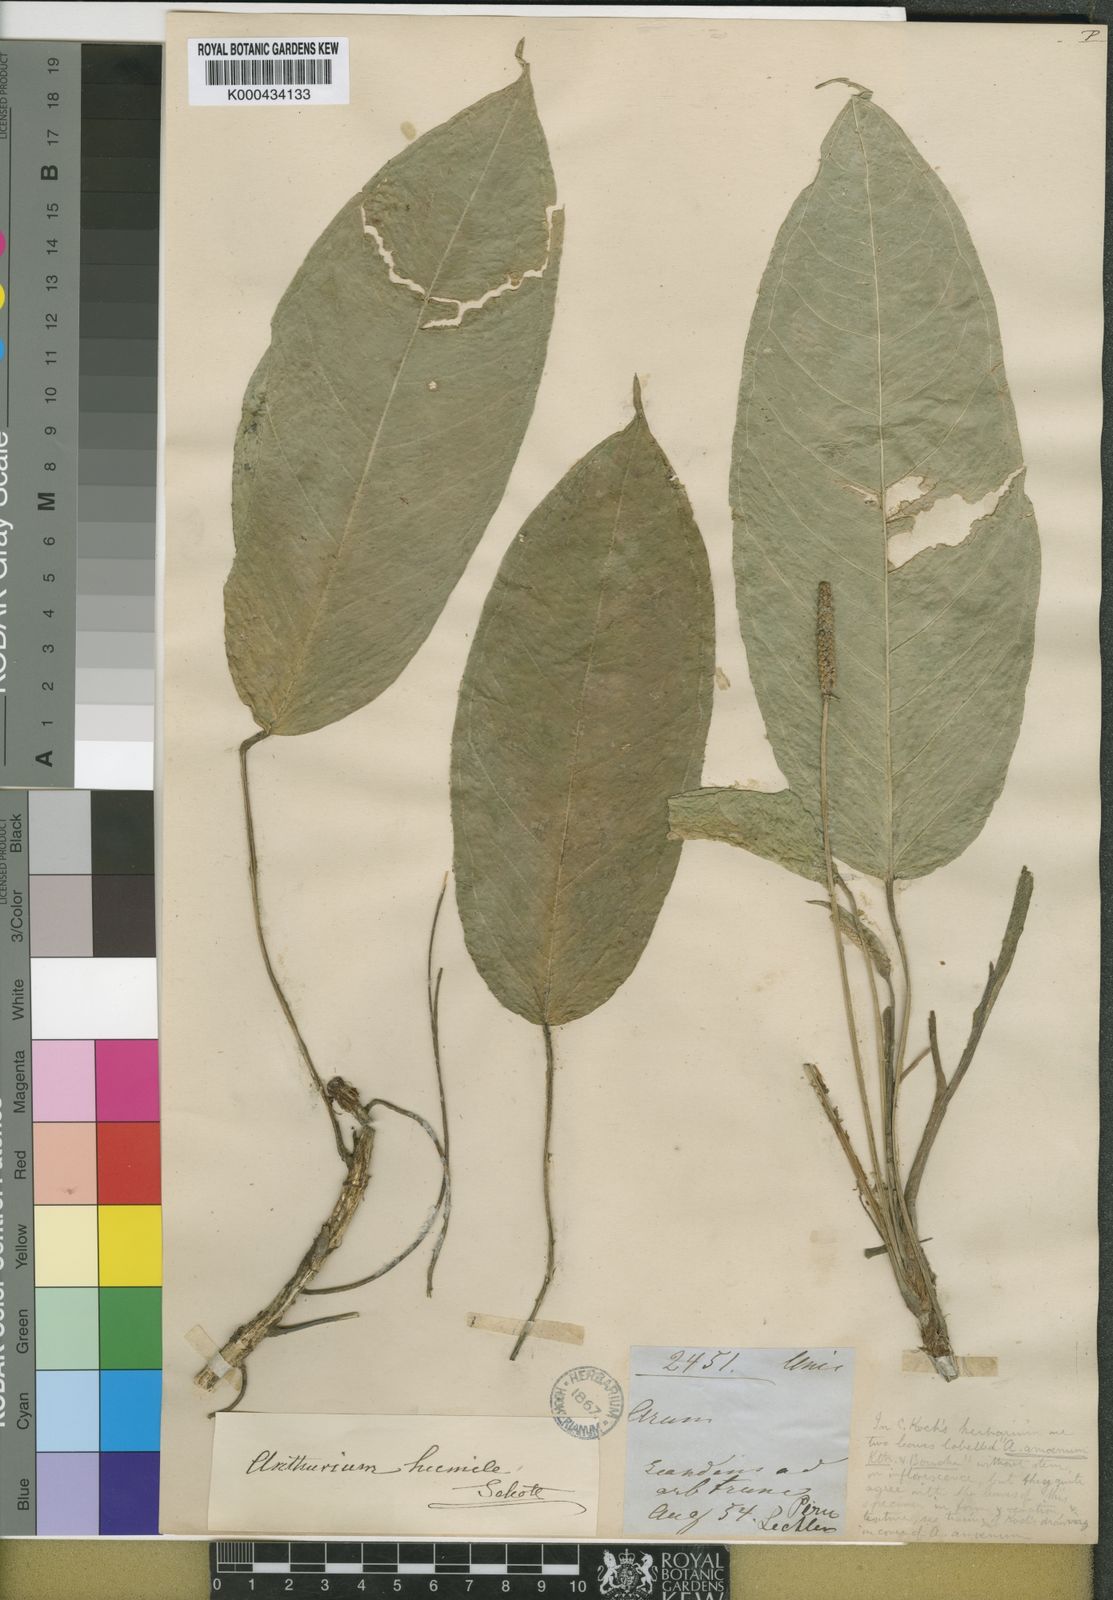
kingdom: Plantae
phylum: Tracheophyta
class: Liliopsida
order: Alismatales
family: Araceae
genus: Anthurium
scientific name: Anthurium amoenum
